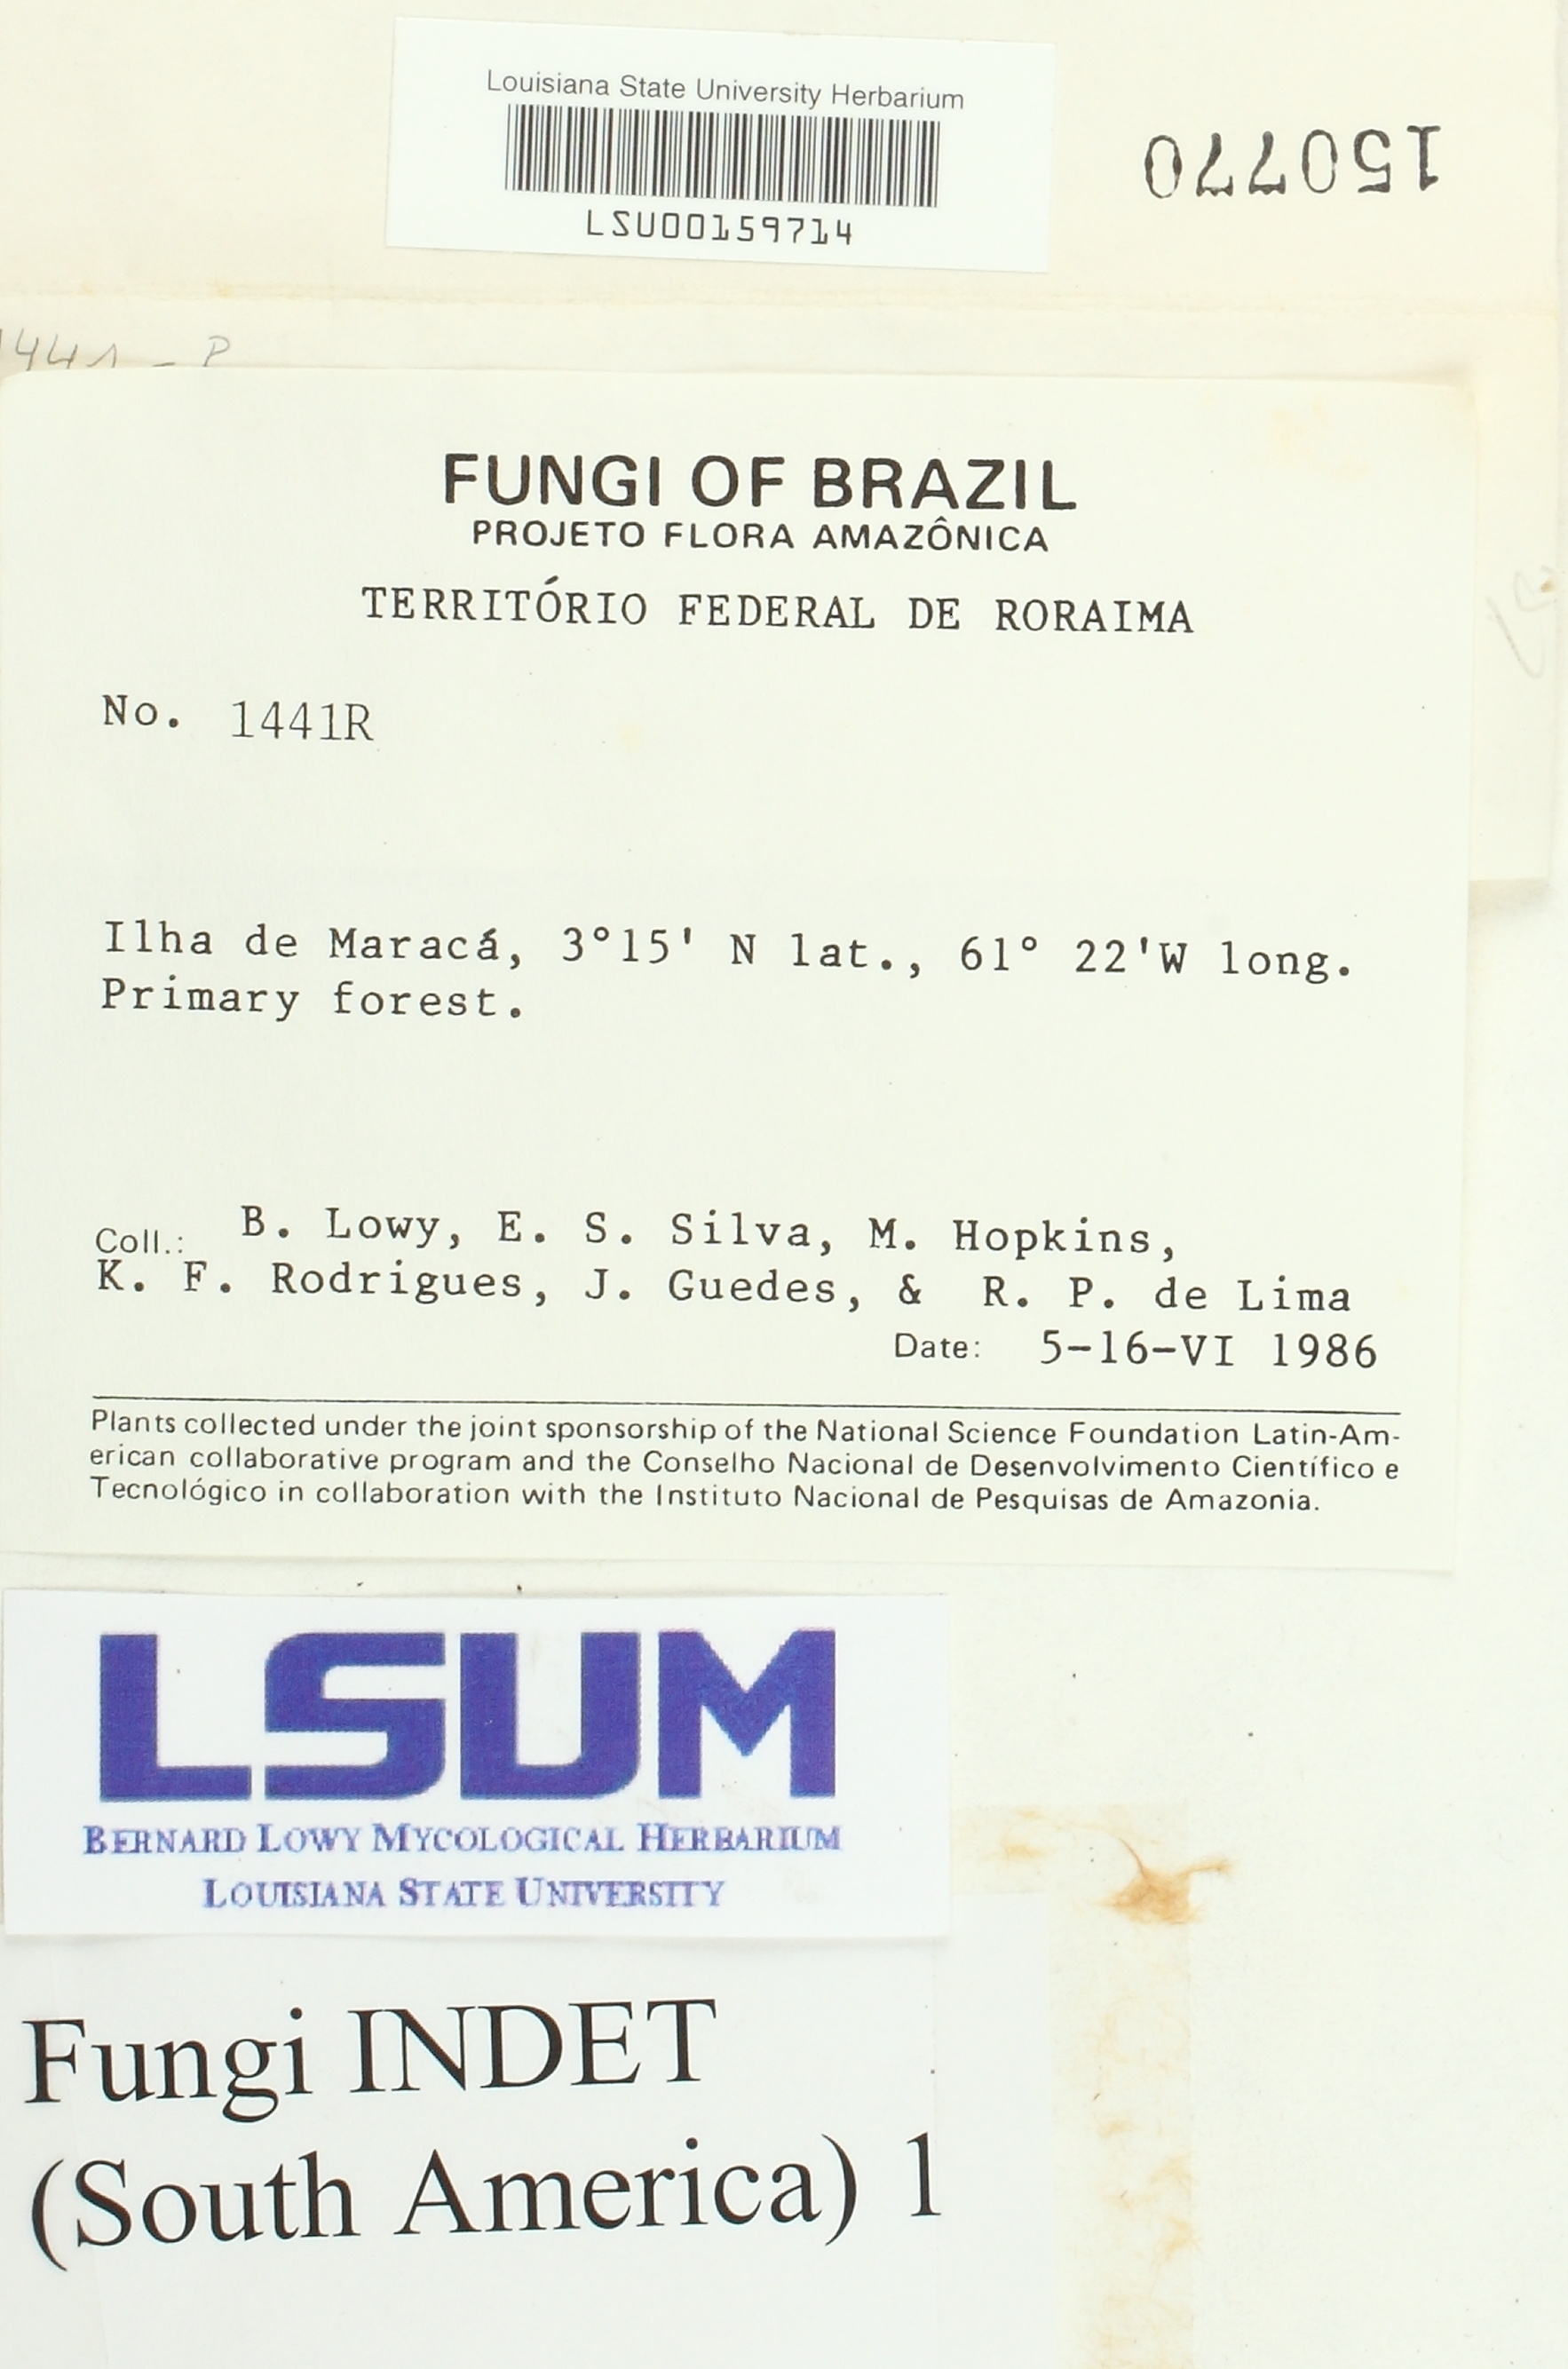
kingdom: Fungi
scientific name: Fungi
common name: Fungi
